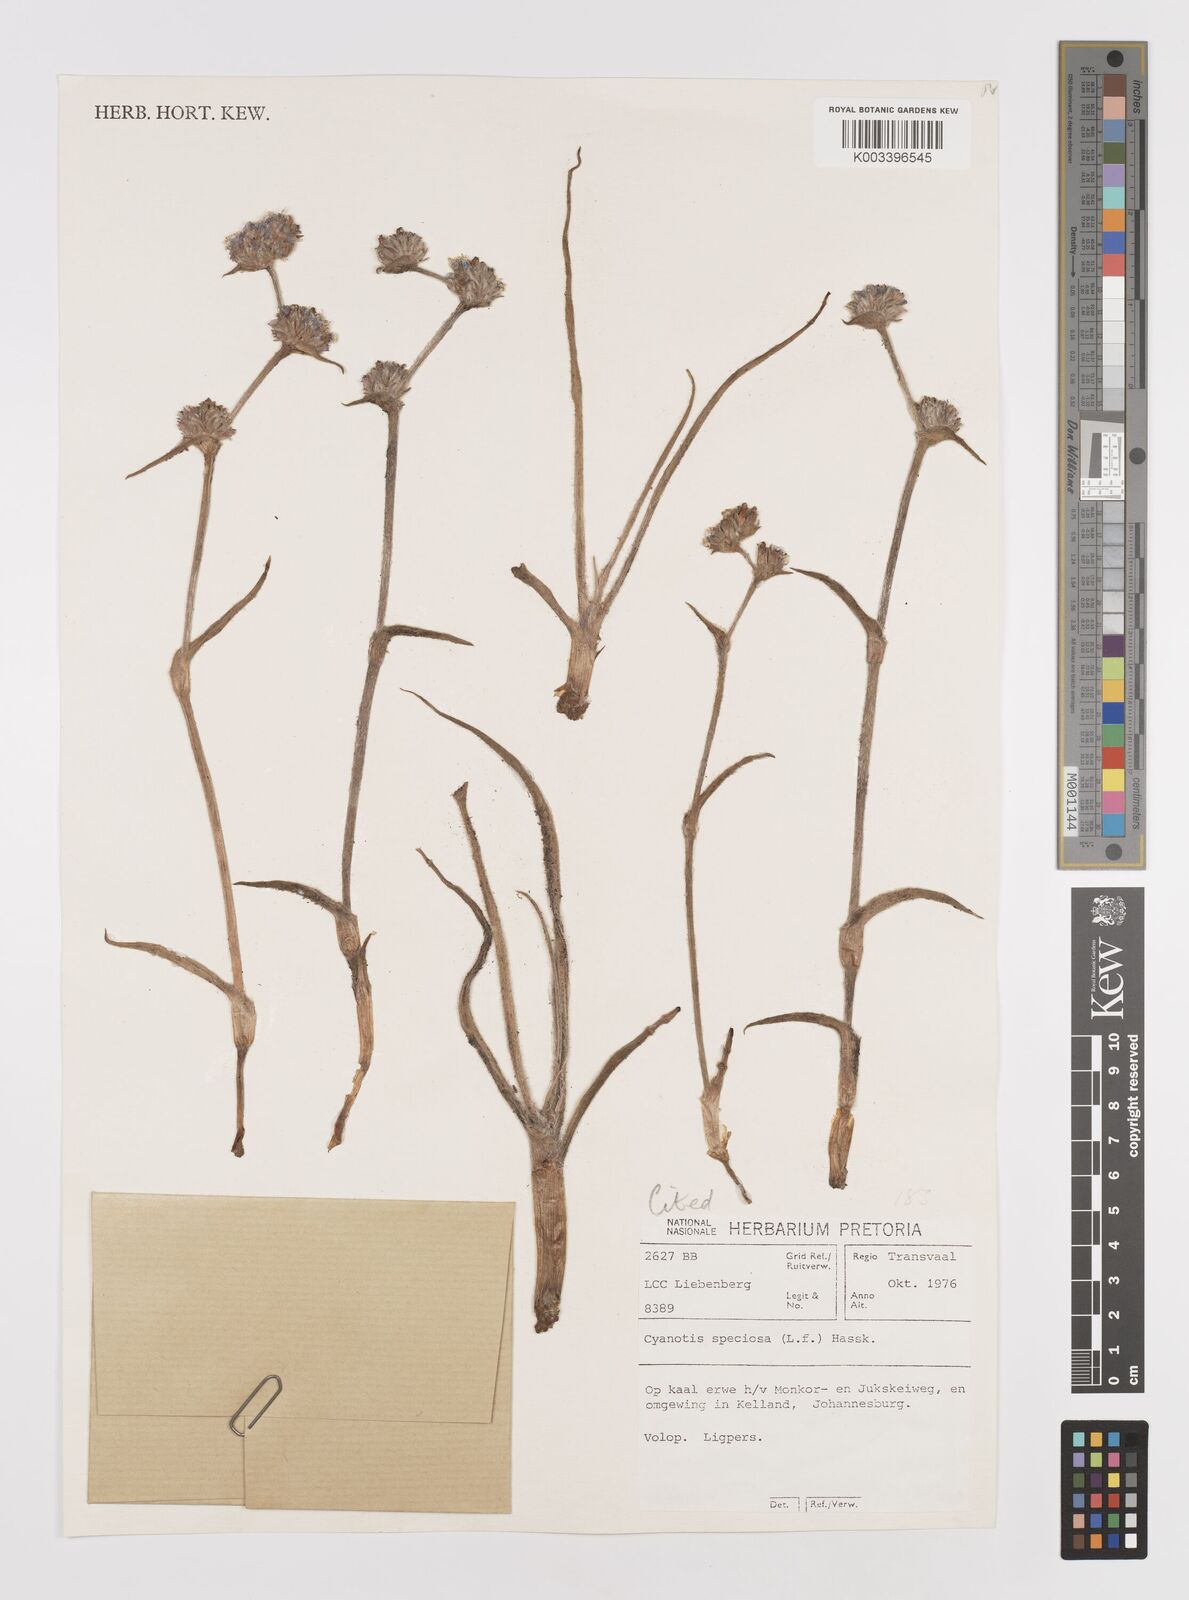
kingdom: Plantae
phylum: Tracheophyta
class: Liliopsida
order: Commelinales
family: Commelinaceae
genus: Cyanotis
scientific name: Cyanotis speciosa
